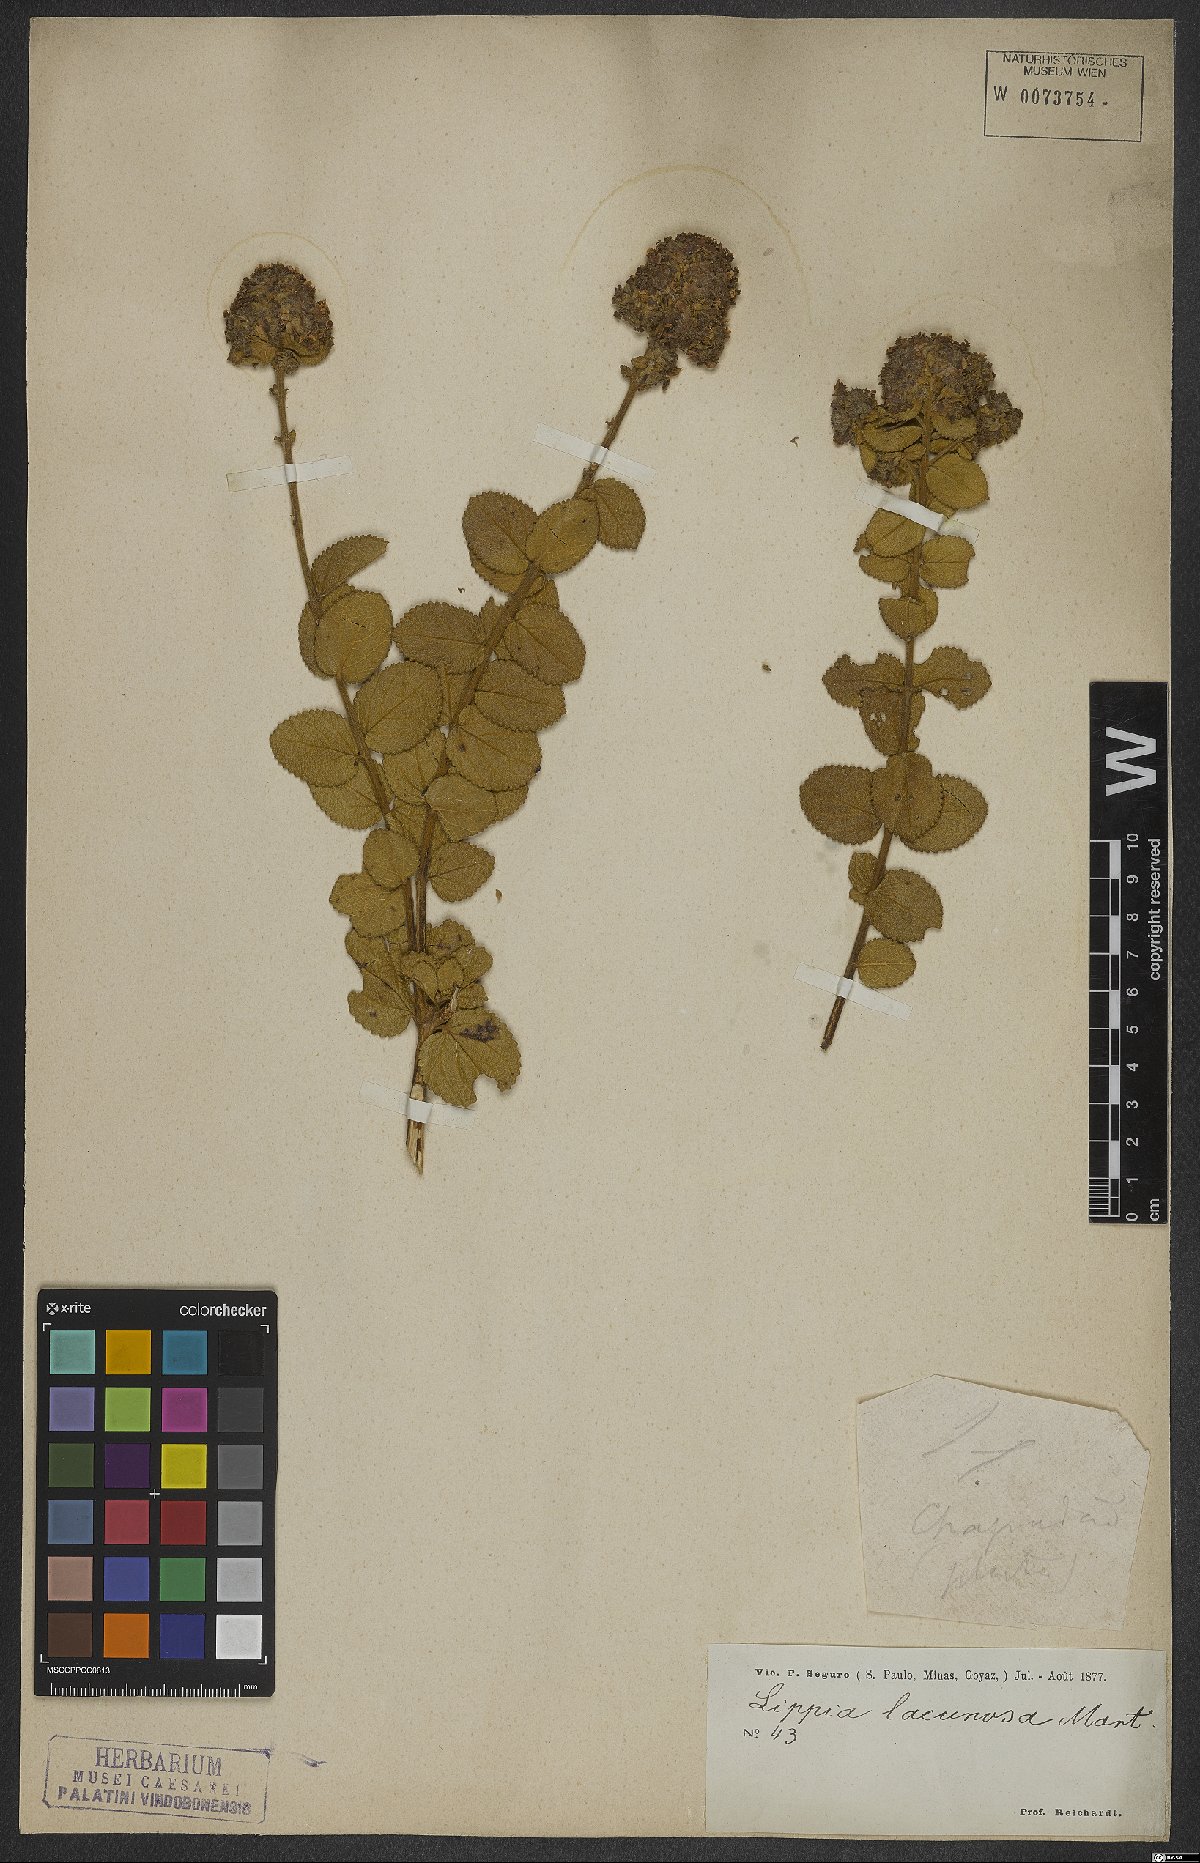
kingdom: Plantae
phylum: Tracheophyta
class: Magnoliopsida
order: Lamiales
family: Verbenaceae
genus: Lippia
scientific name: Lippia lacunosa
